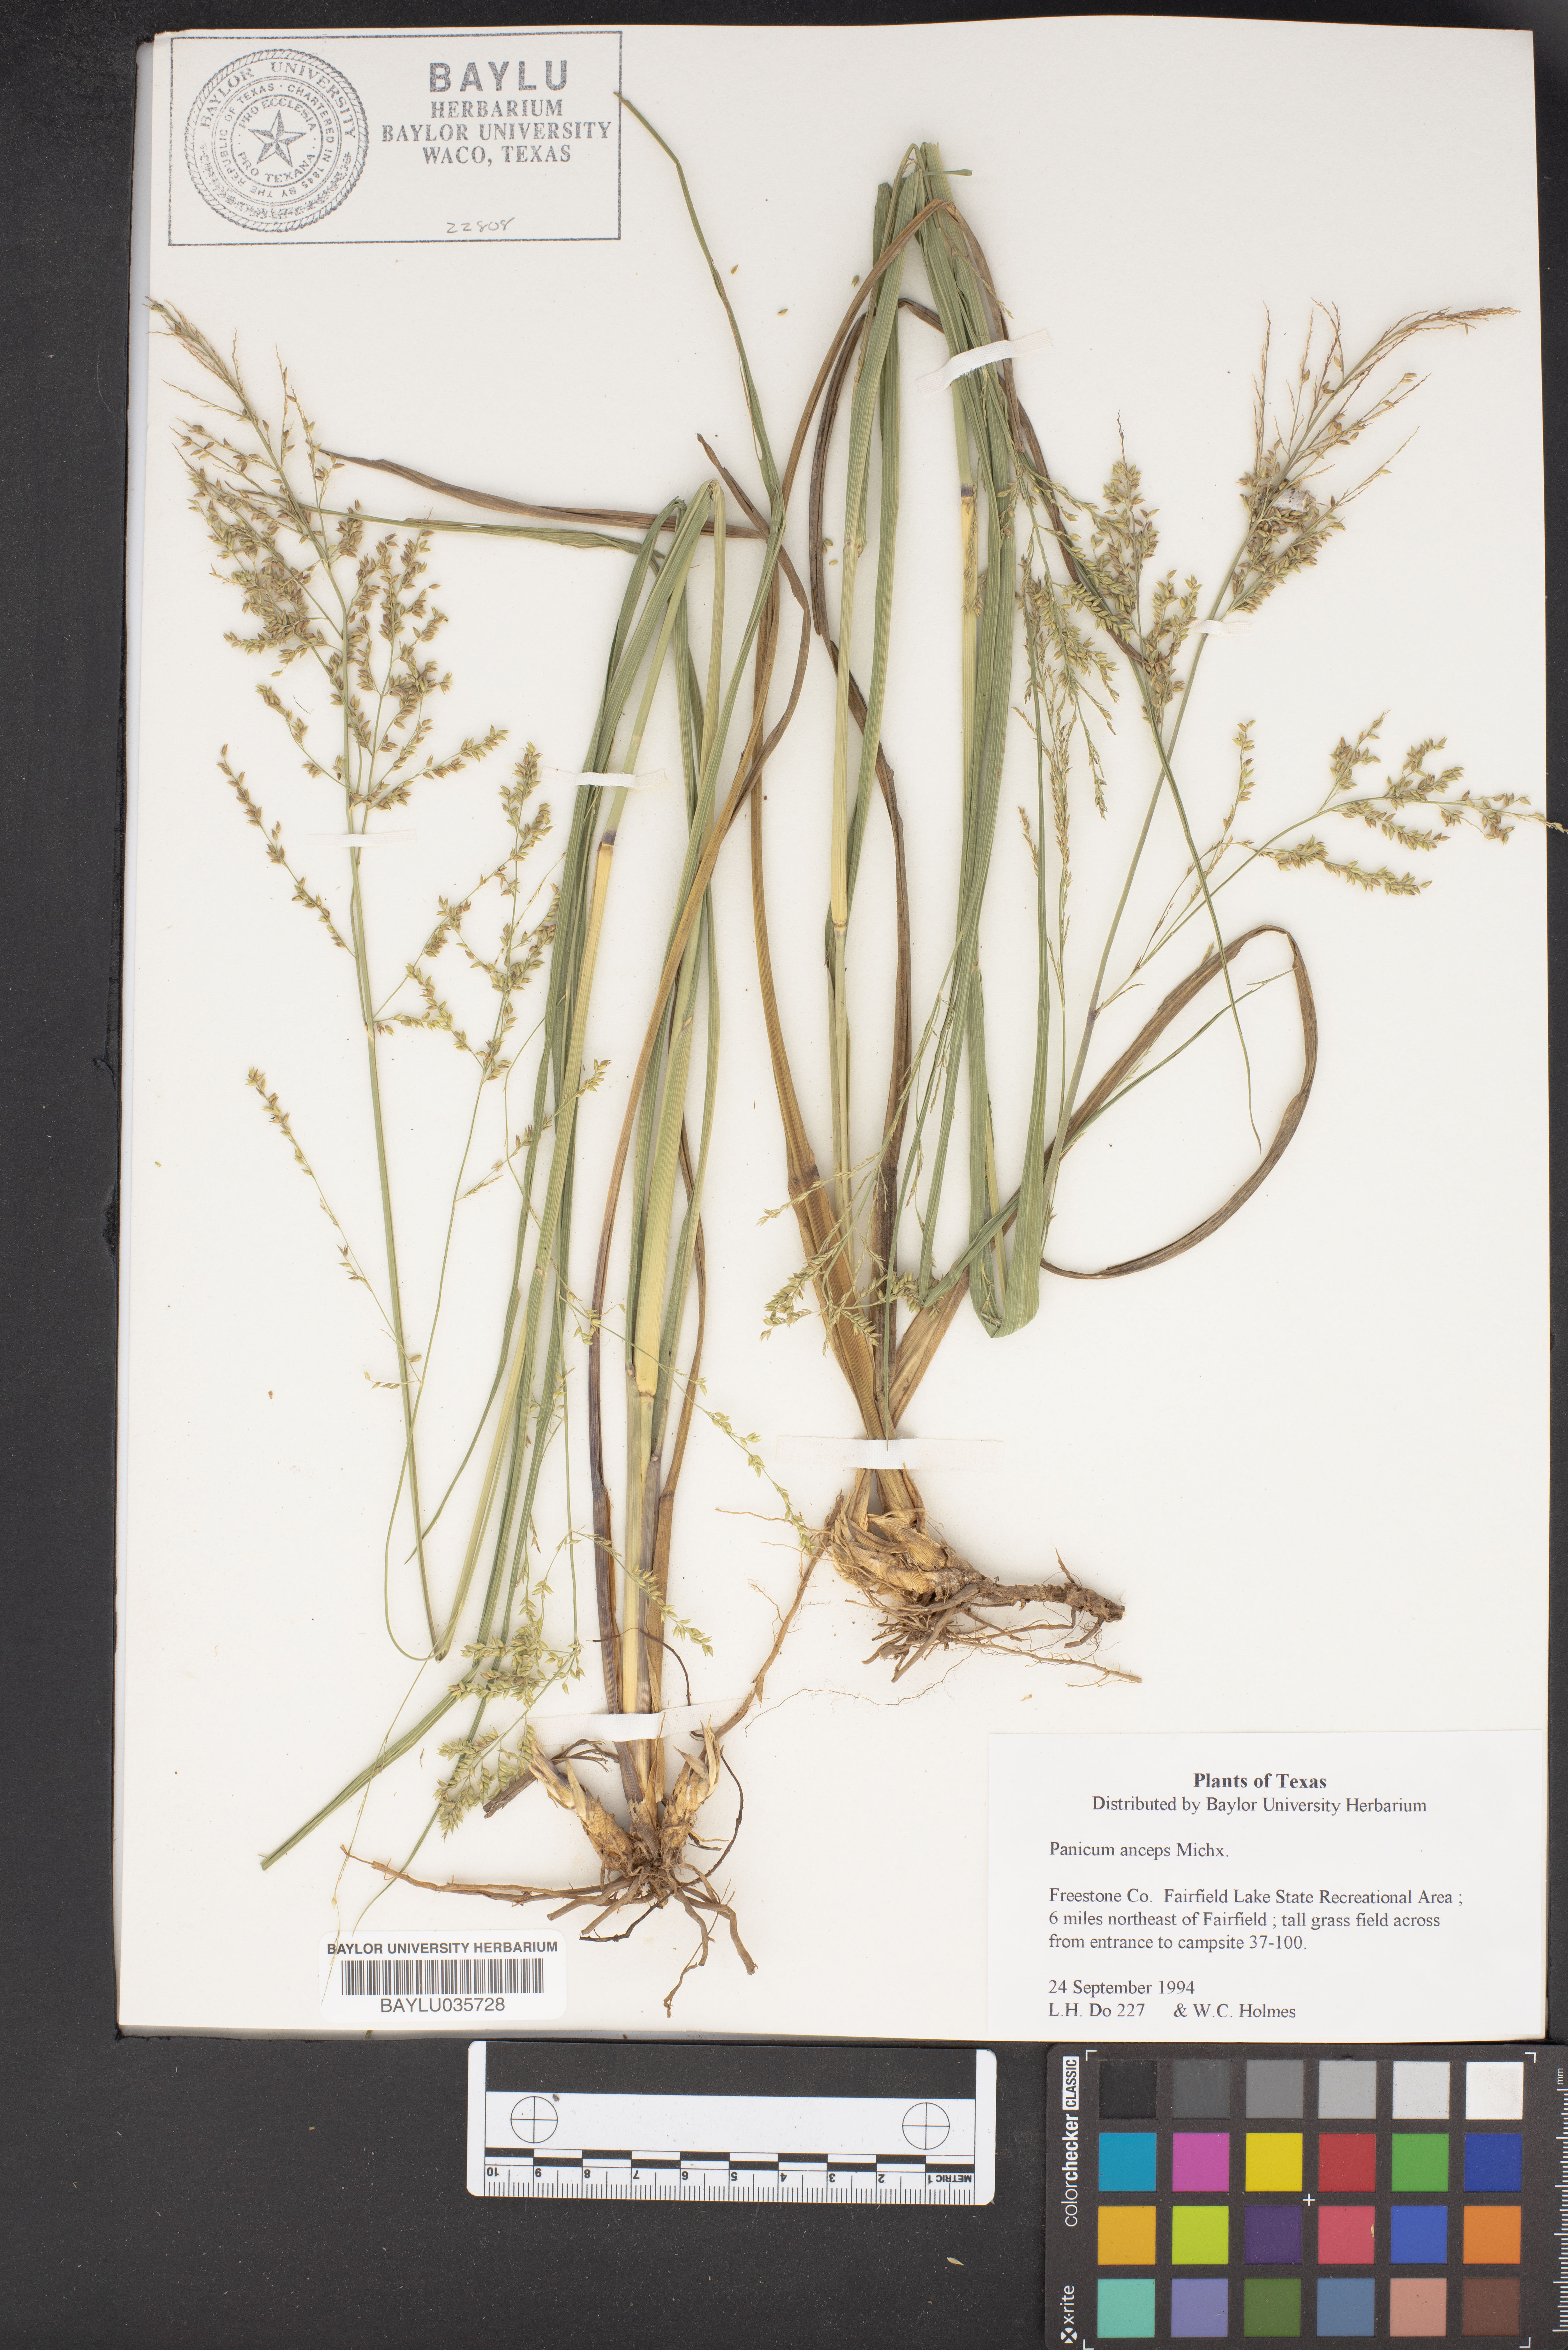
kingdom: Plantae
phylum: Tracheophyta
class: Liliopsida
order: Poales
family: Poaceae
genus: Coleataenia
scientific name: Coleataenia anceps
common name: Beaked panic grass
